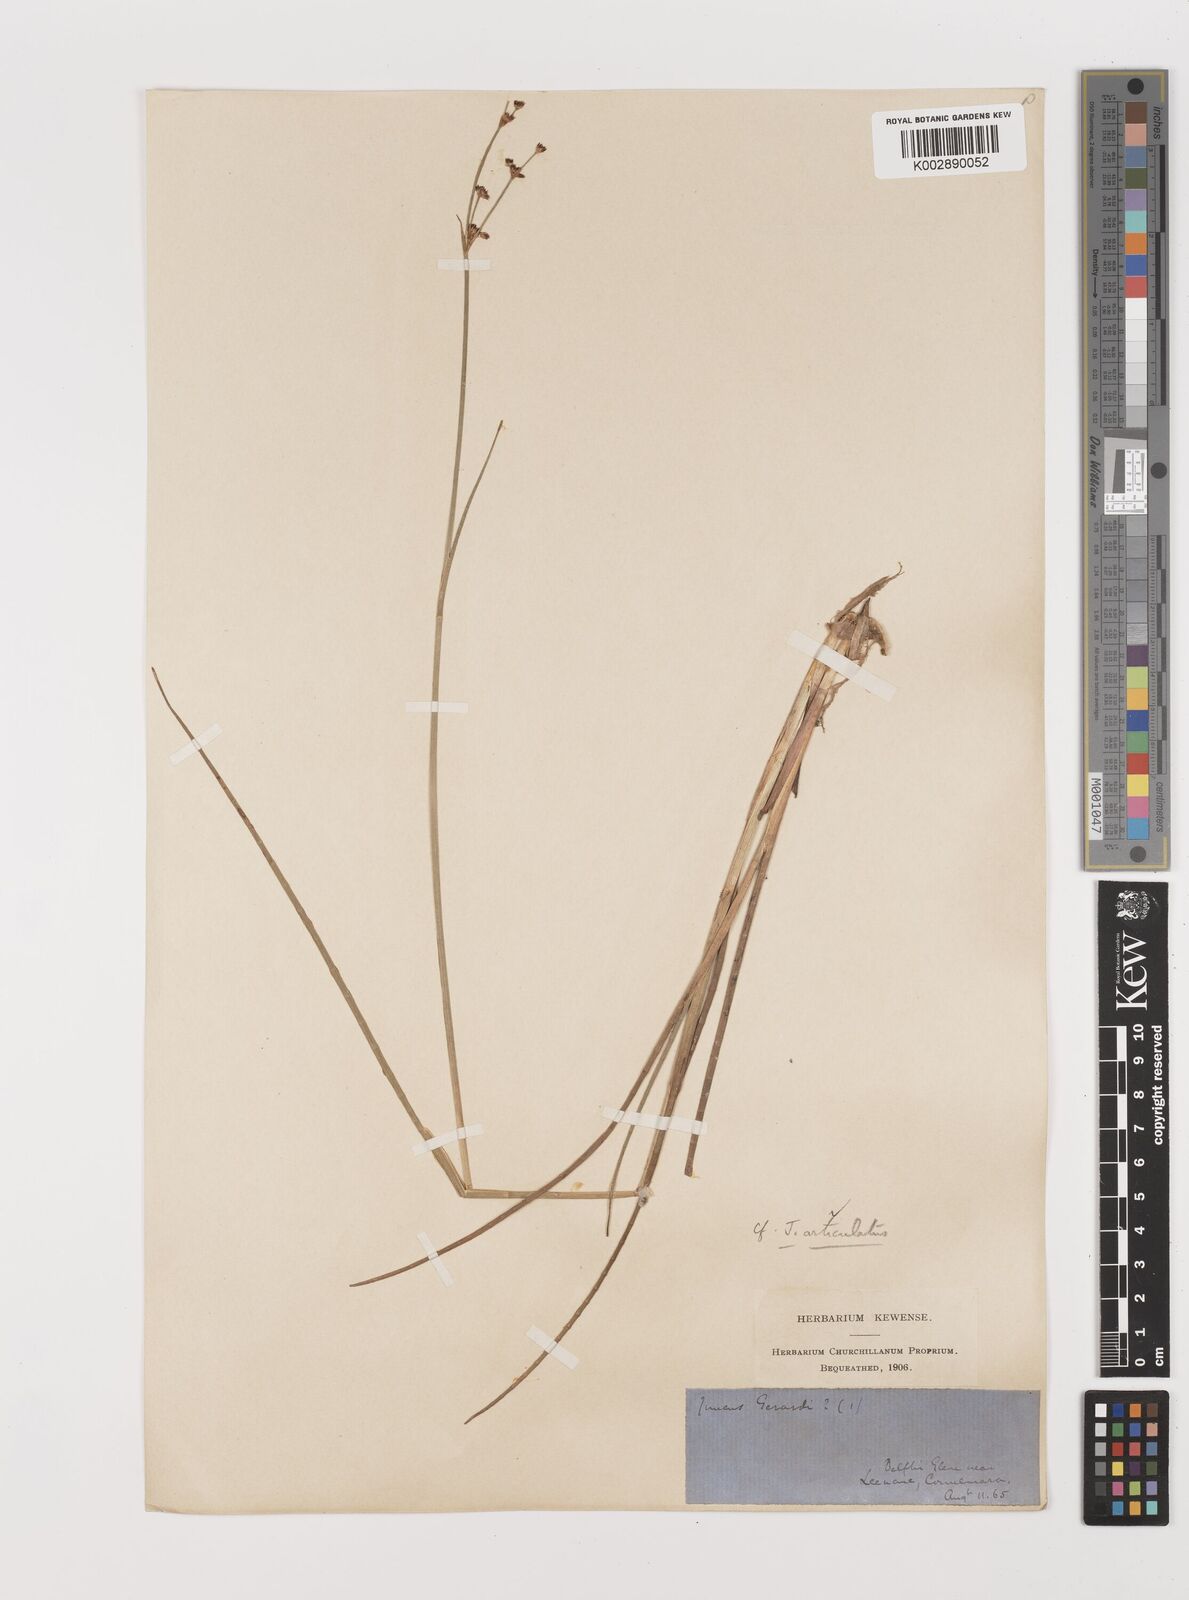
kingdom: Plantae
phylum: Tracheophyta
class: Liliopsida
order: Poales
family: Juncaceae
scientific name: Juncaceae
